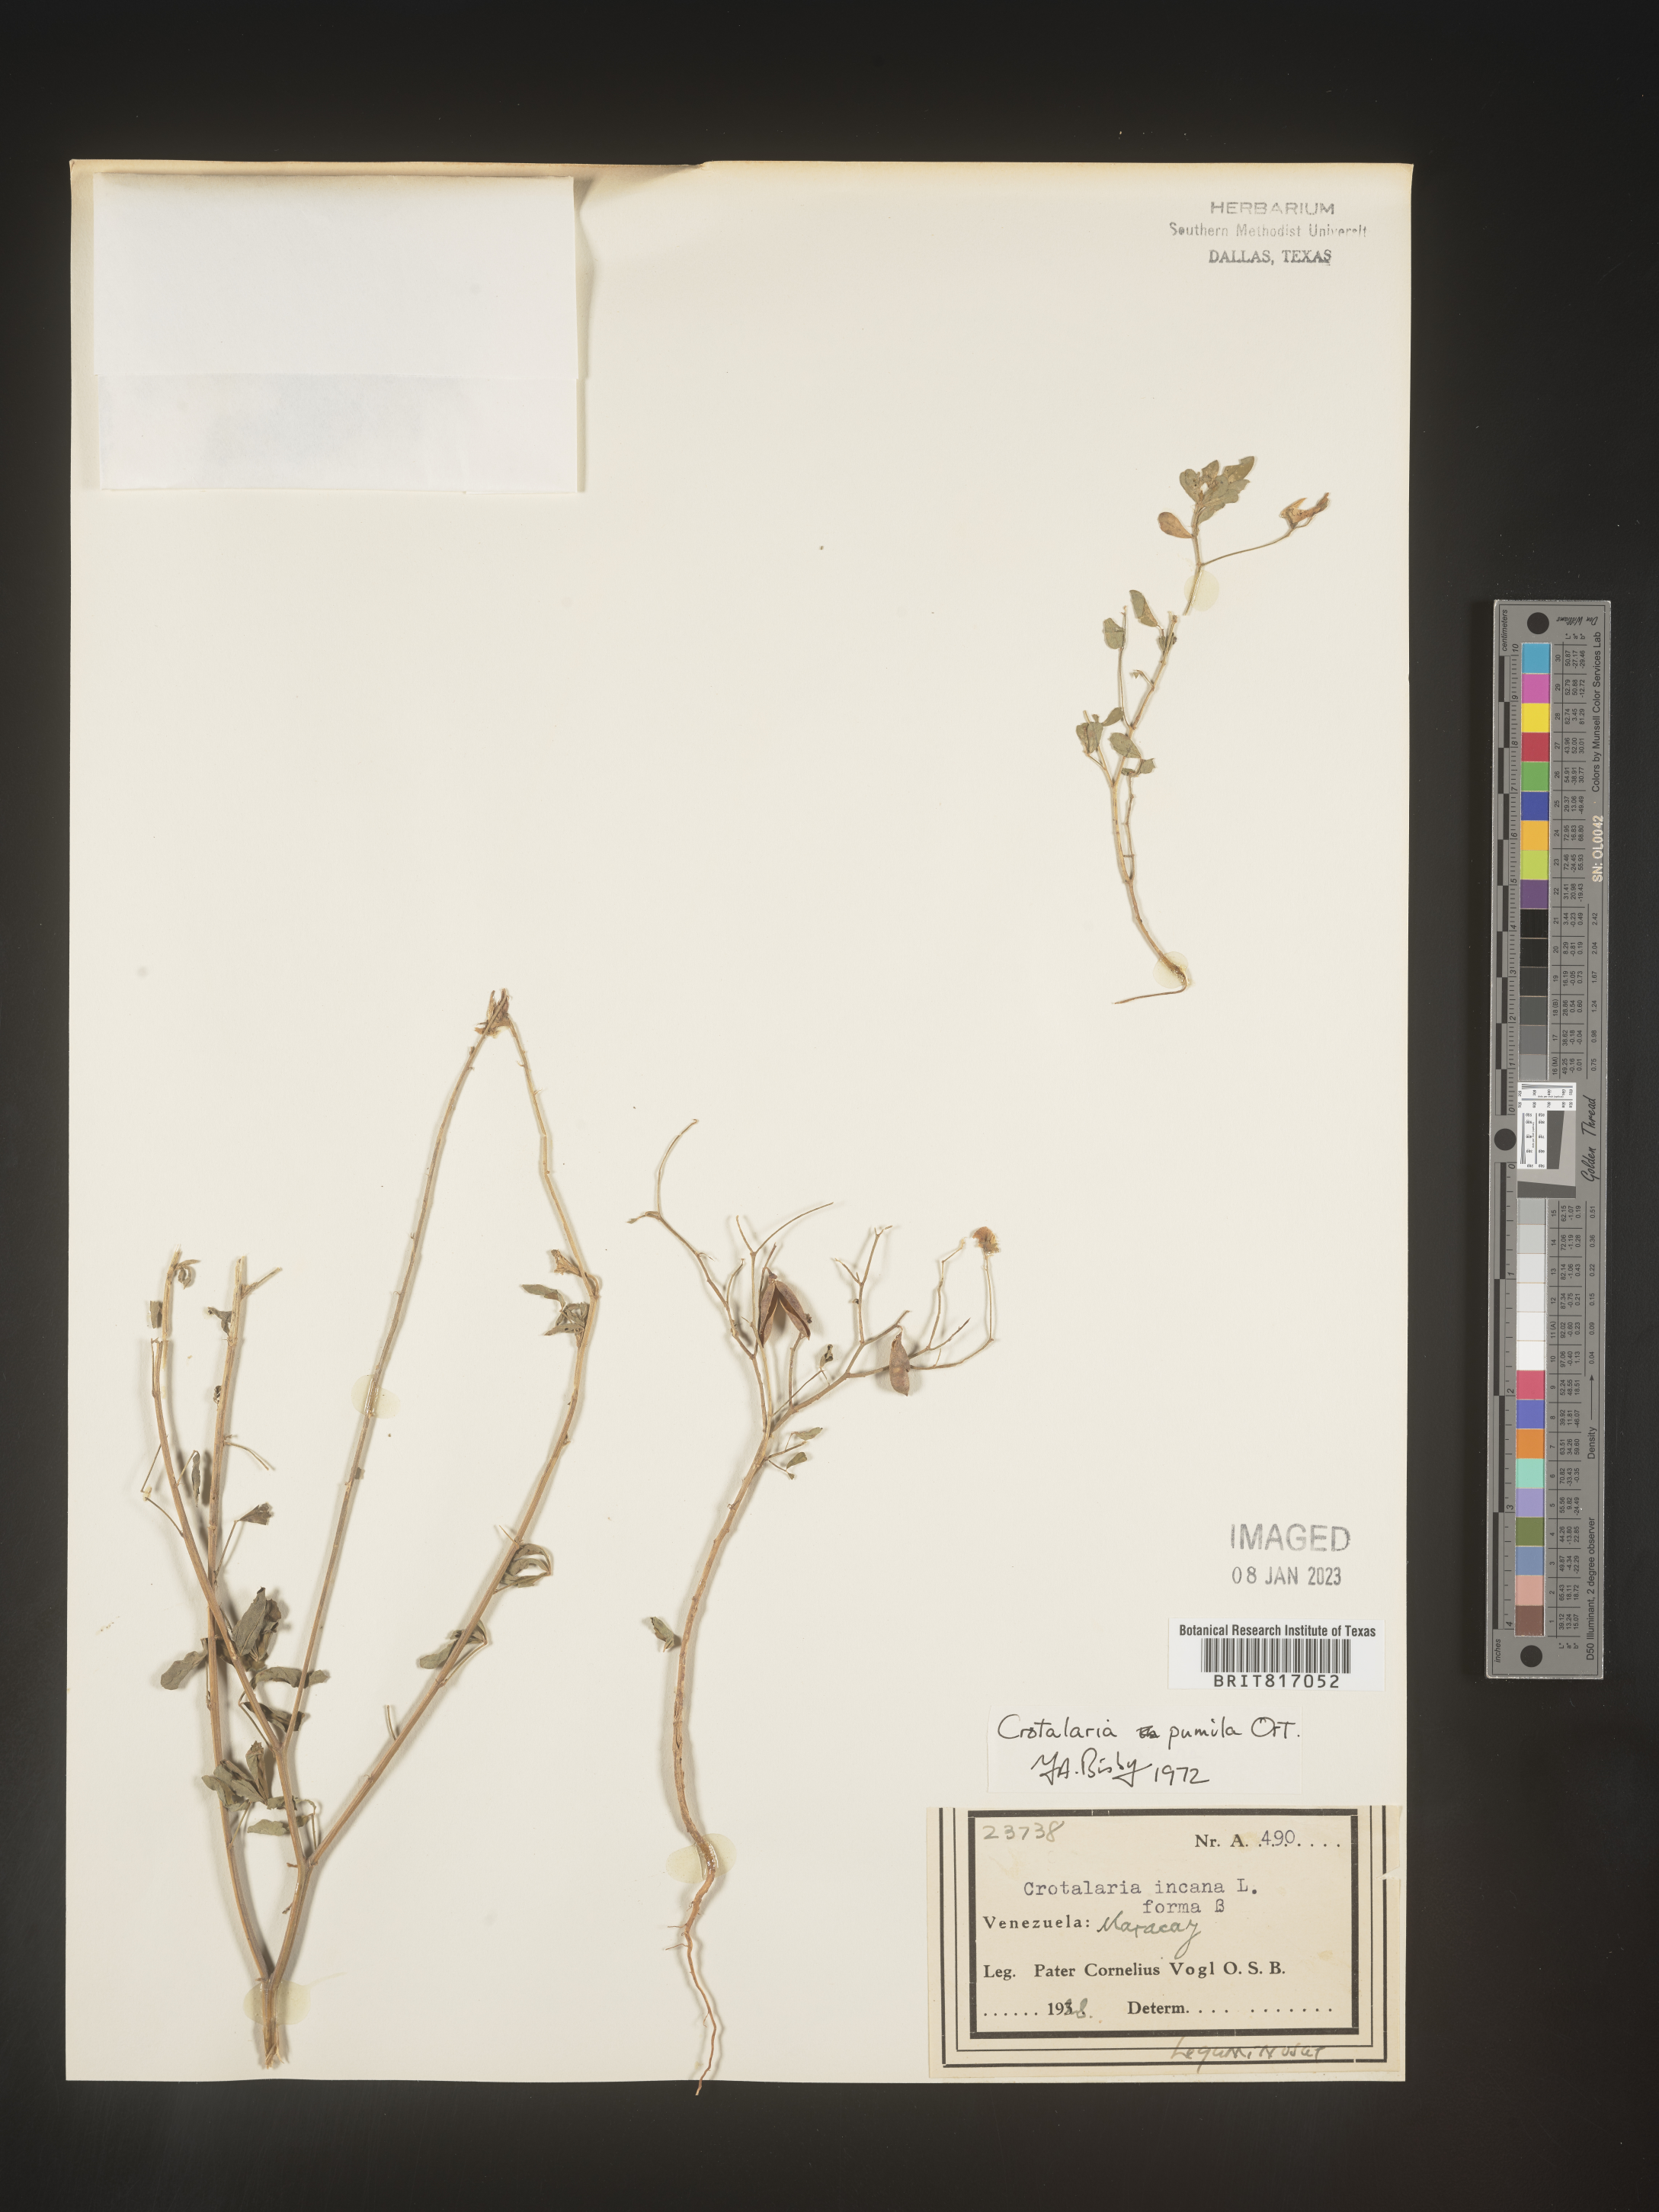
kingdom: Plantae
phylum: Tracheophyta
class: Magnoliopsida
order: Fabales
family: Fabaceae
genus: Crotalaria
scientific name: Crotalaria
